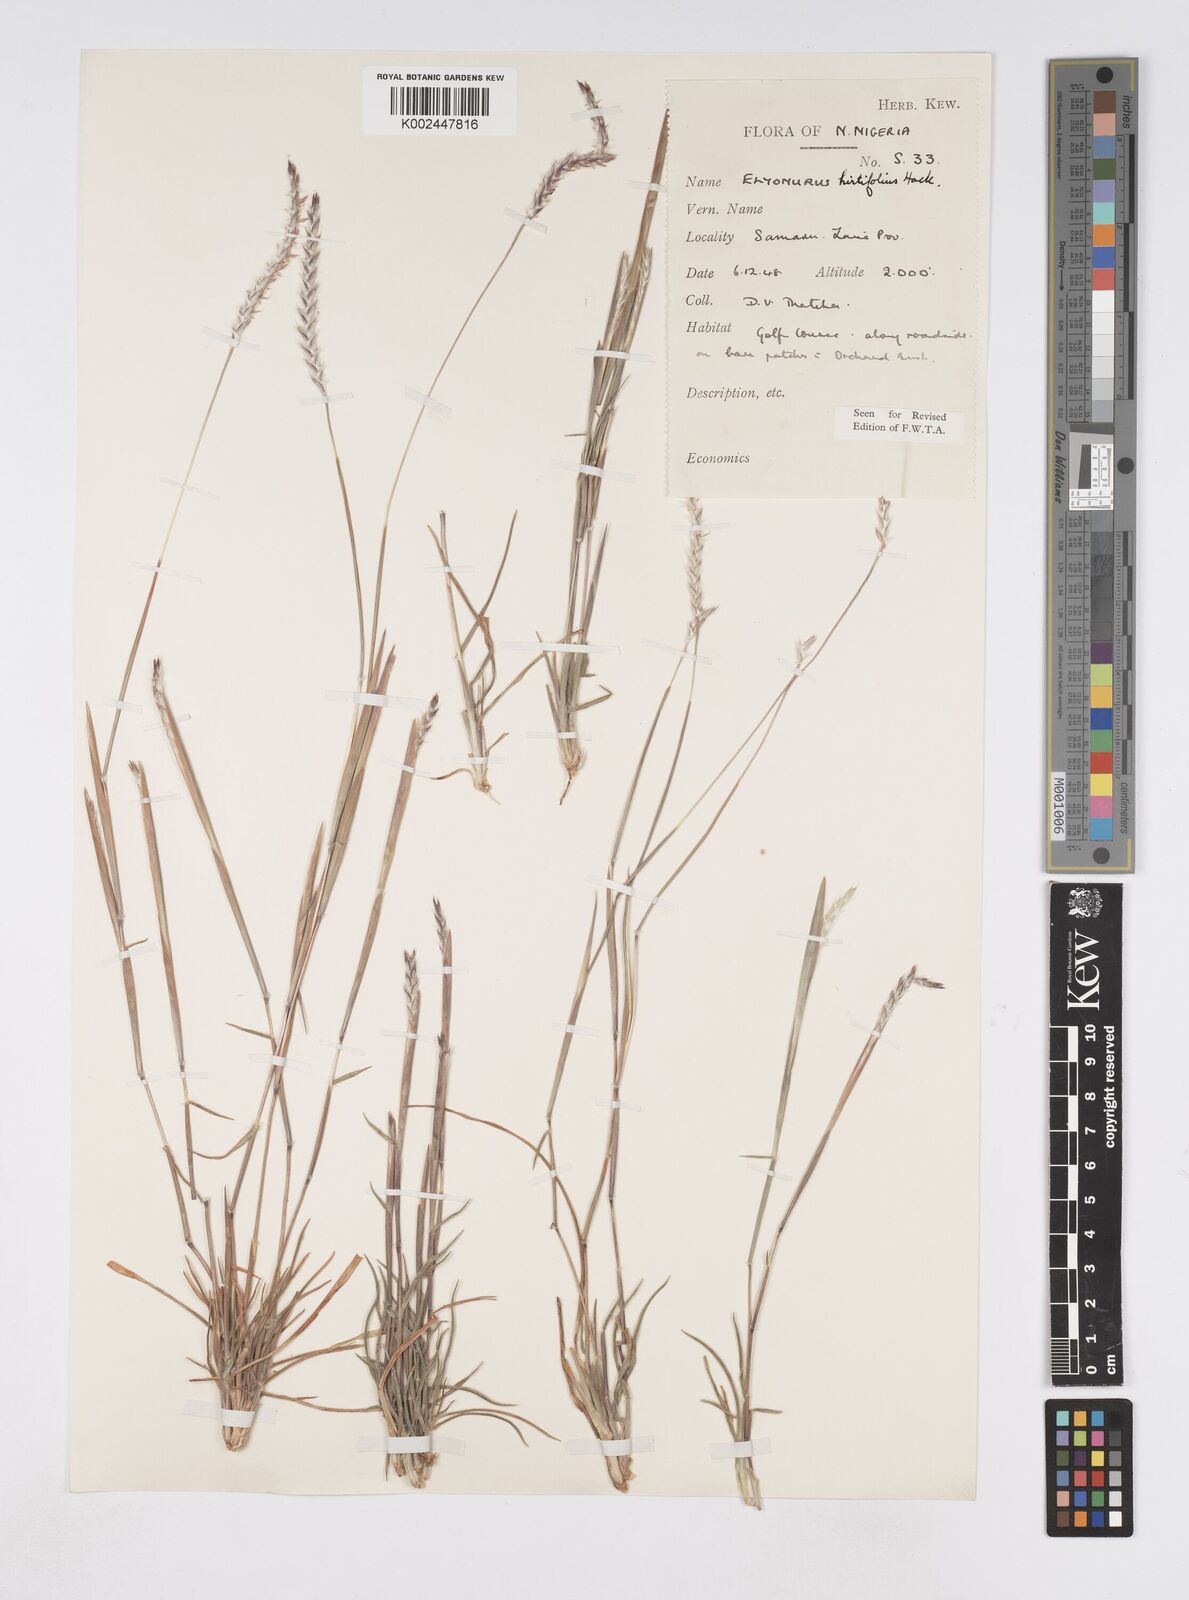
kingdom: Plantae
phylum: Tracheophyta
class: Liliopsida
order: Poales
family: Poaceae
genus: Elionurus
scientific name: Elionurus hirtifolius
